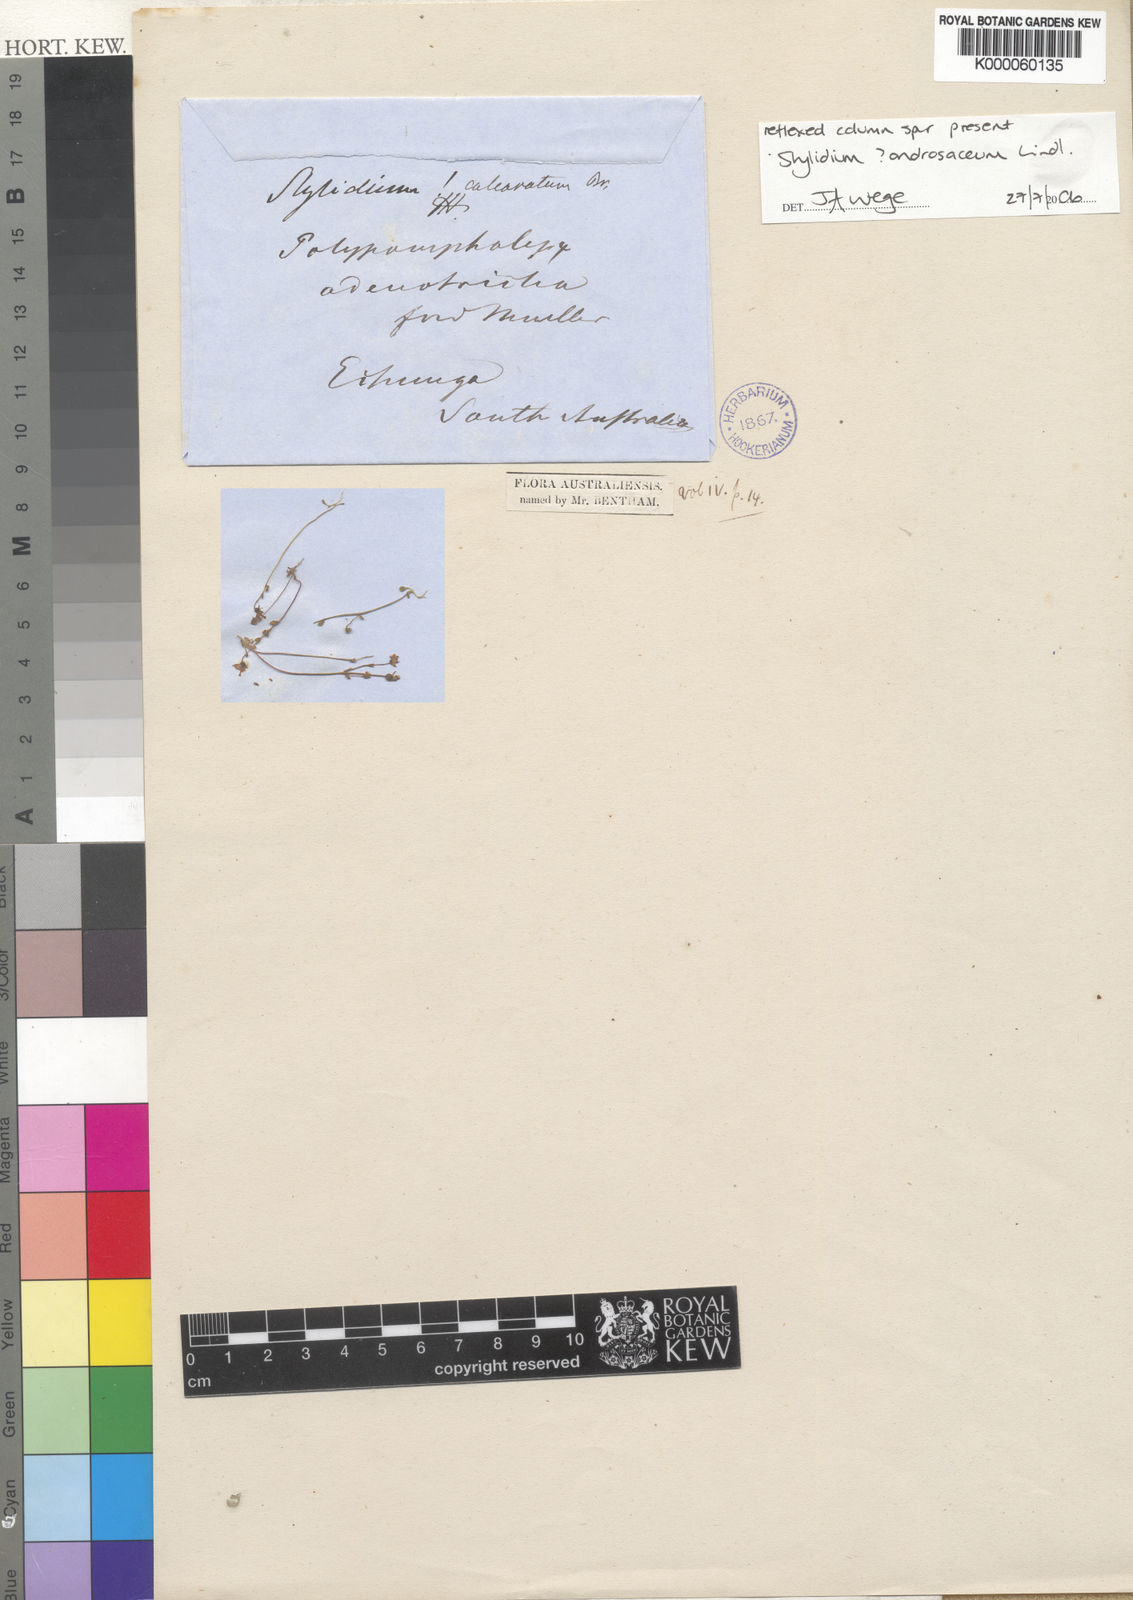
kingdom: Plantae
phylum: Tracheophyta
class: Magnoliopsida
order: Asterales
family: Stylidiaceae
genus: Stylidium
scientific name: Stylidium androsaceum
